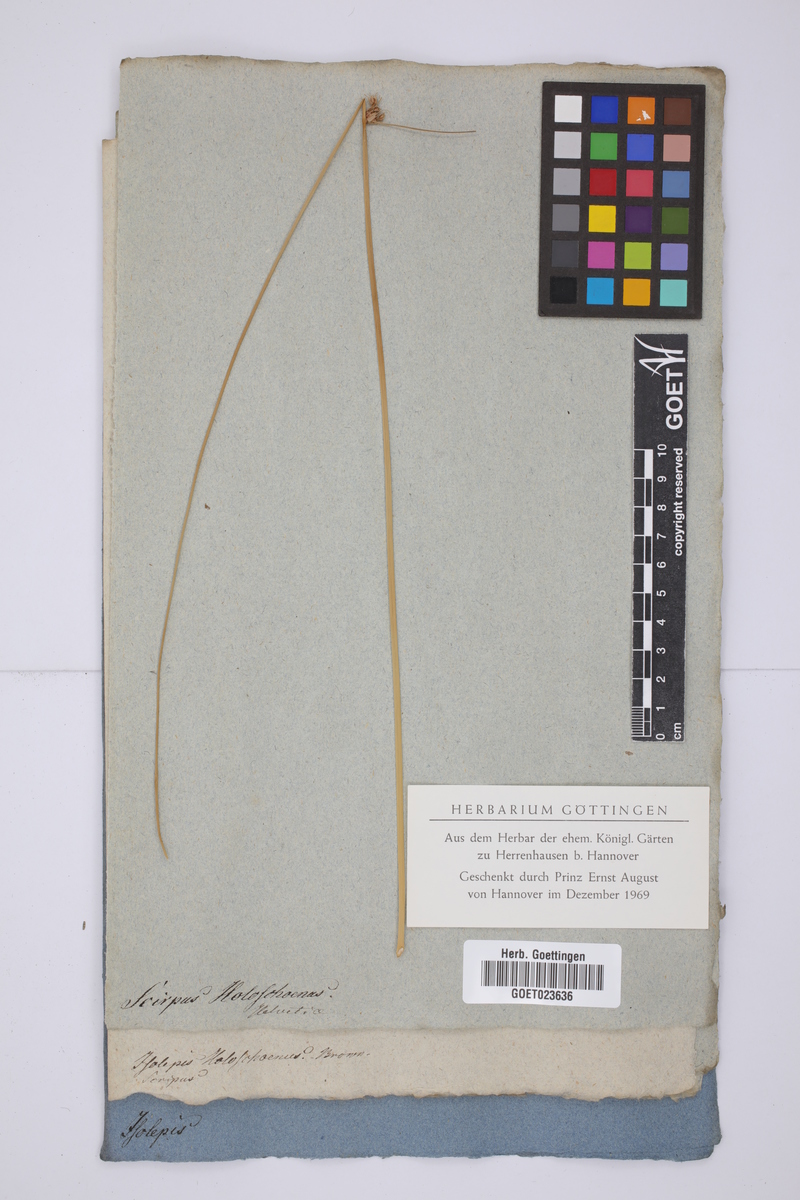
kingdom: Plantae
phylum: Tracheophyta
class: Liliopsida
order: Poales
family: Cyperaceae
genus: Scirpoides
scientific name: Scirpoides holoschoenus
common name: Round-headed club-rush
